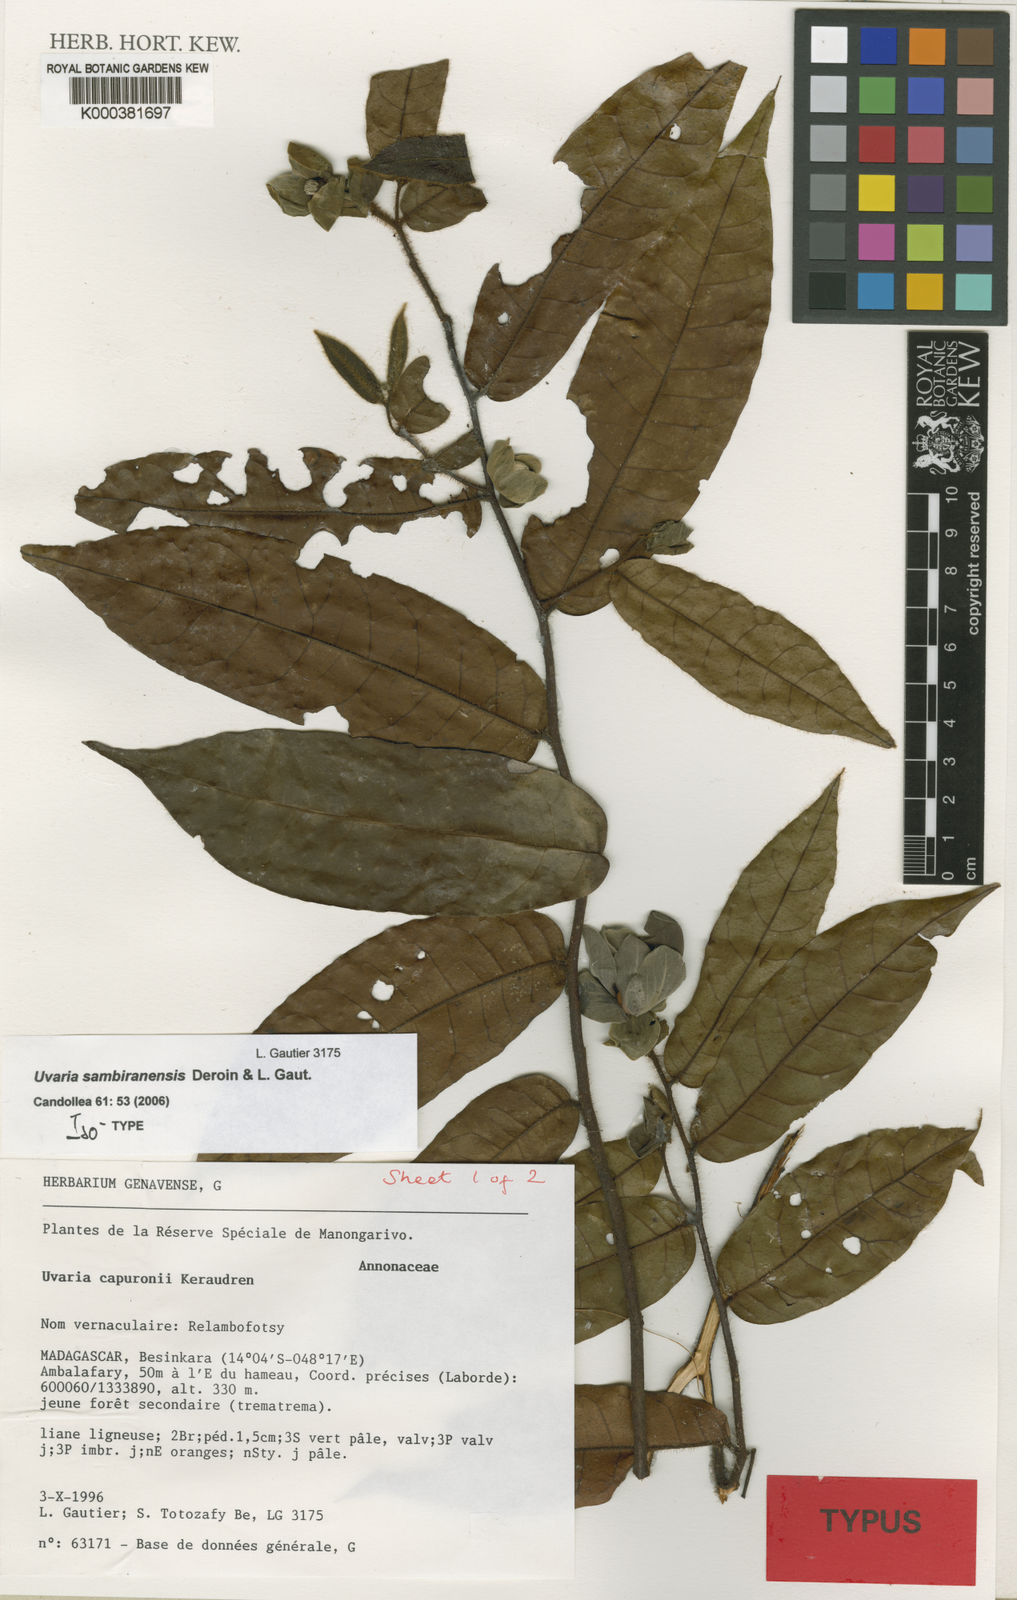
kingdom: Plantae
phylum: Tracheophyta
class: Magnoliopsida
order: Magnoliales
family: Annonaceae
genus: Uvaria
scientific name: Uvaria sambiranensis
